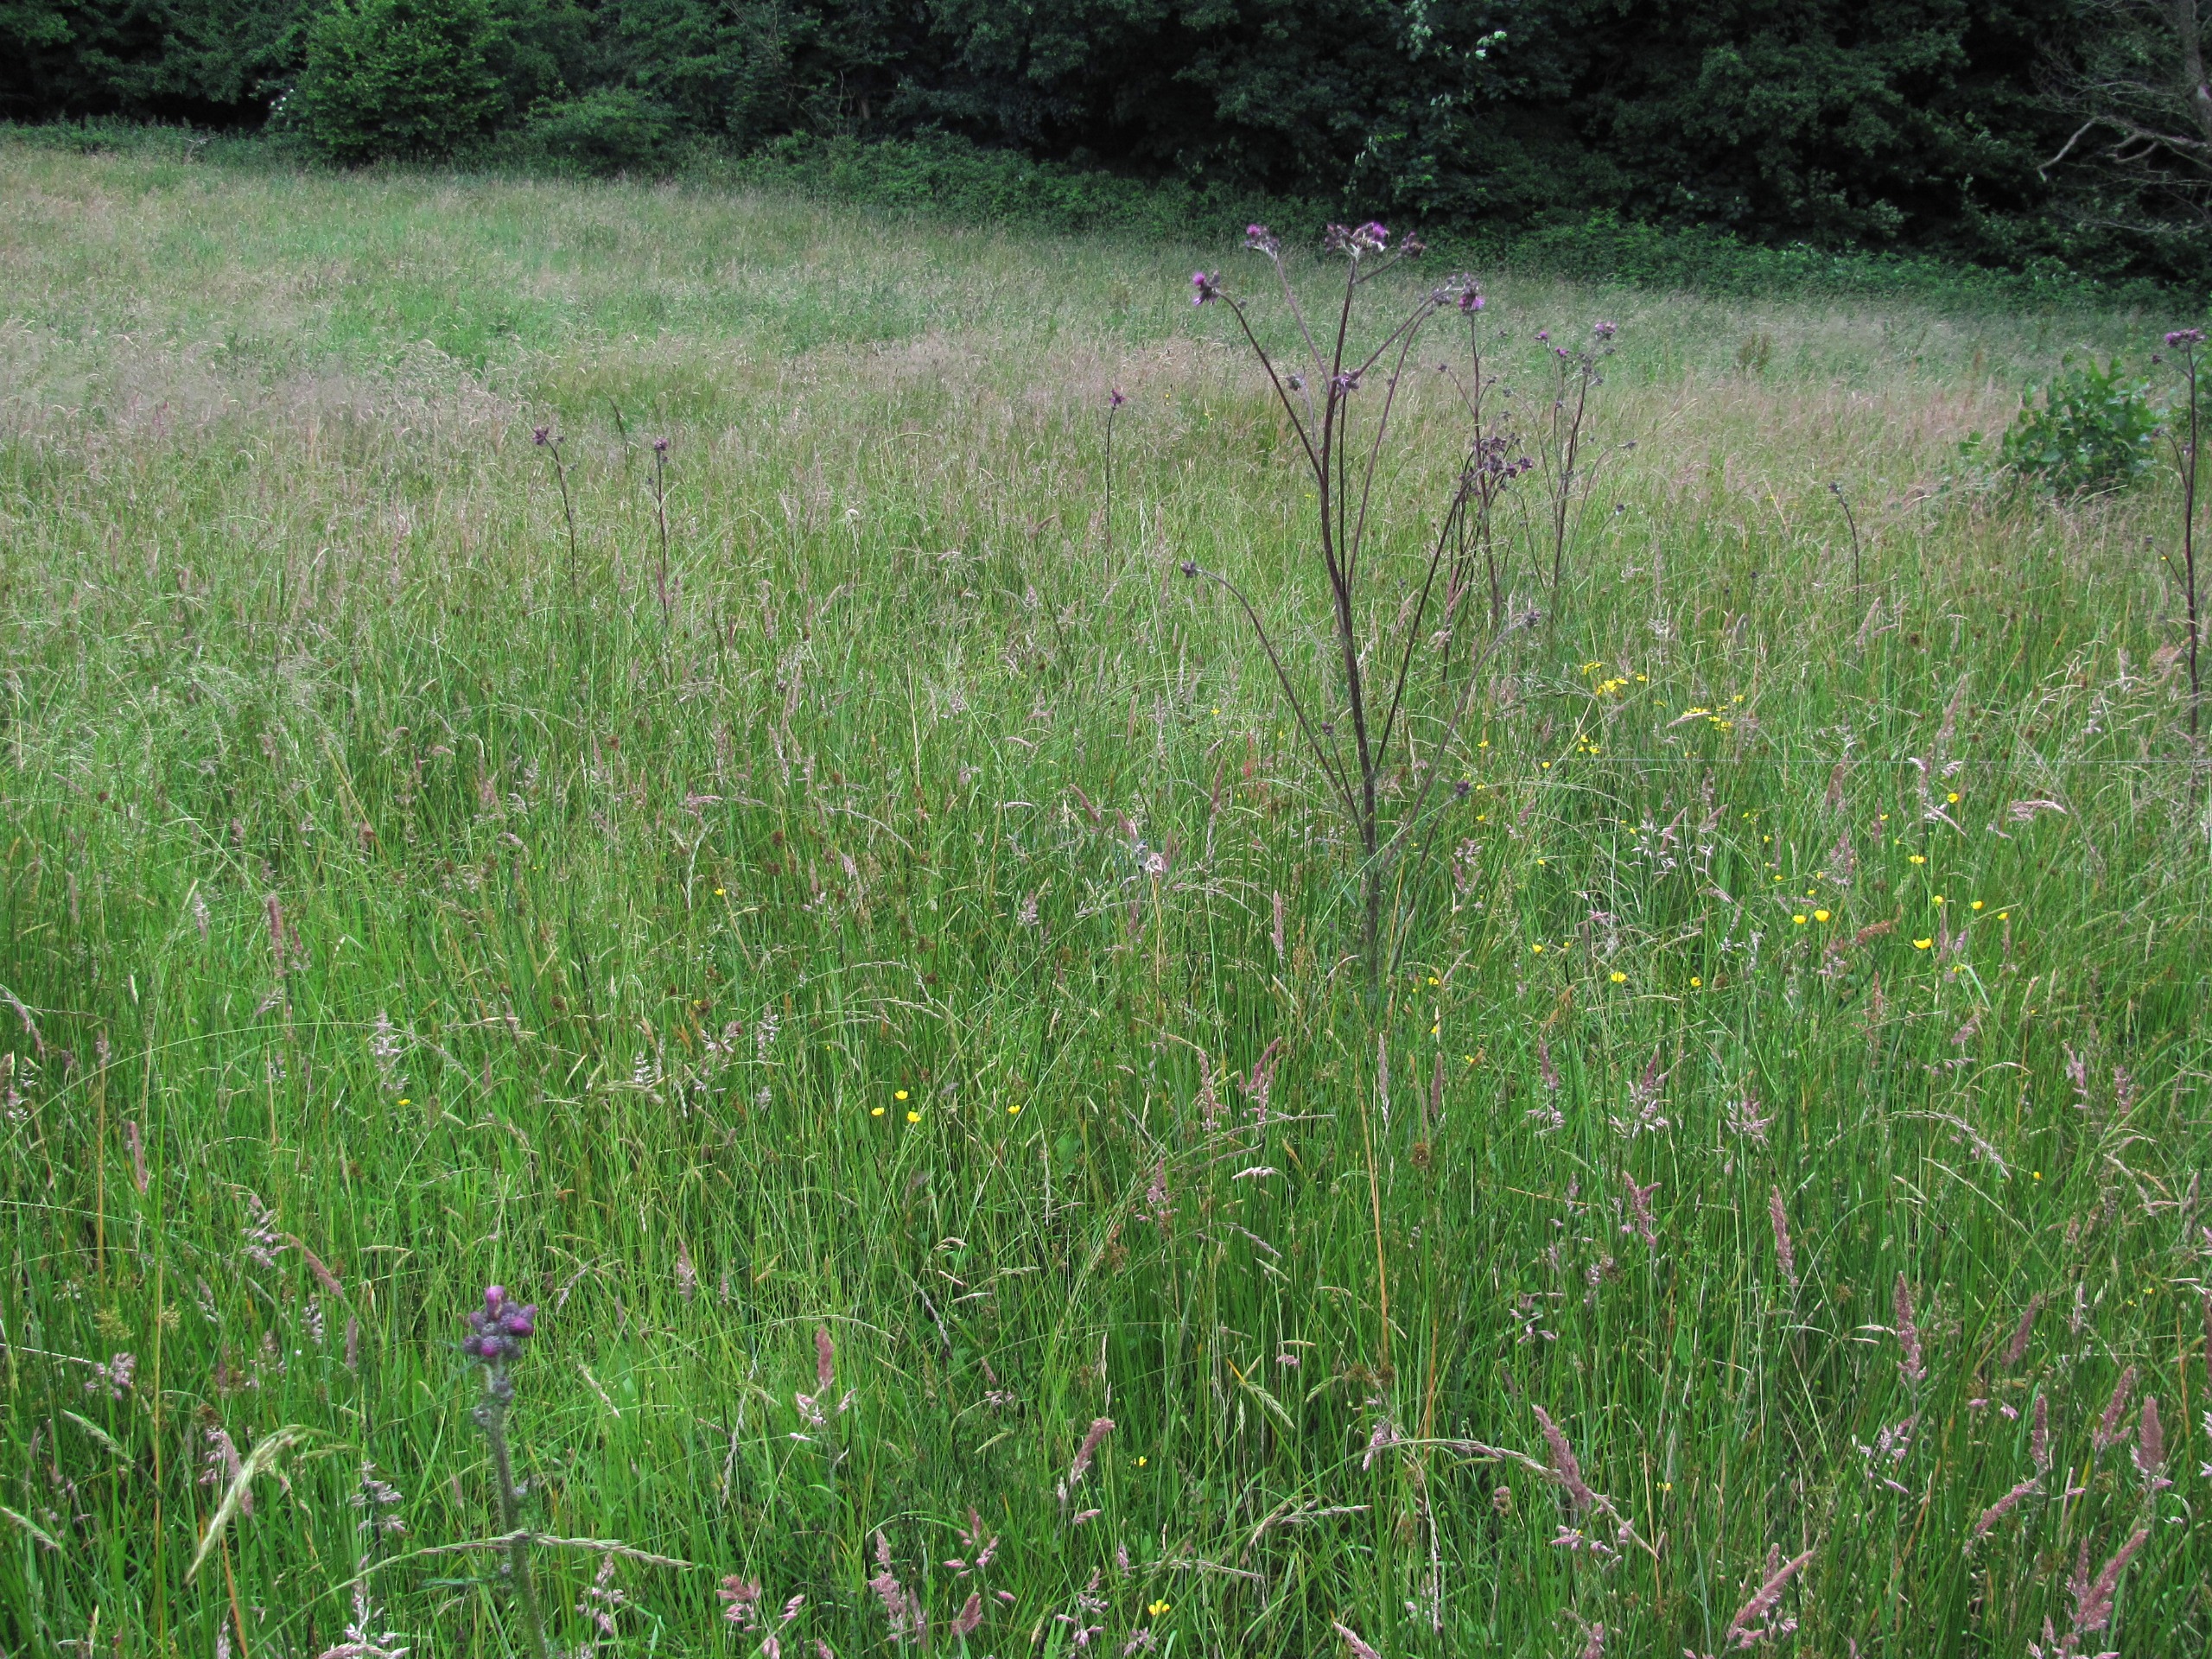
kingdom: Plantae
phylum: Tracheophyta
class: Magnoliopsida
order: Asterales
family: Asteraceae
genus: Cirsium
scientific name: Cirsium palustre
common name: Kær-tidsel
